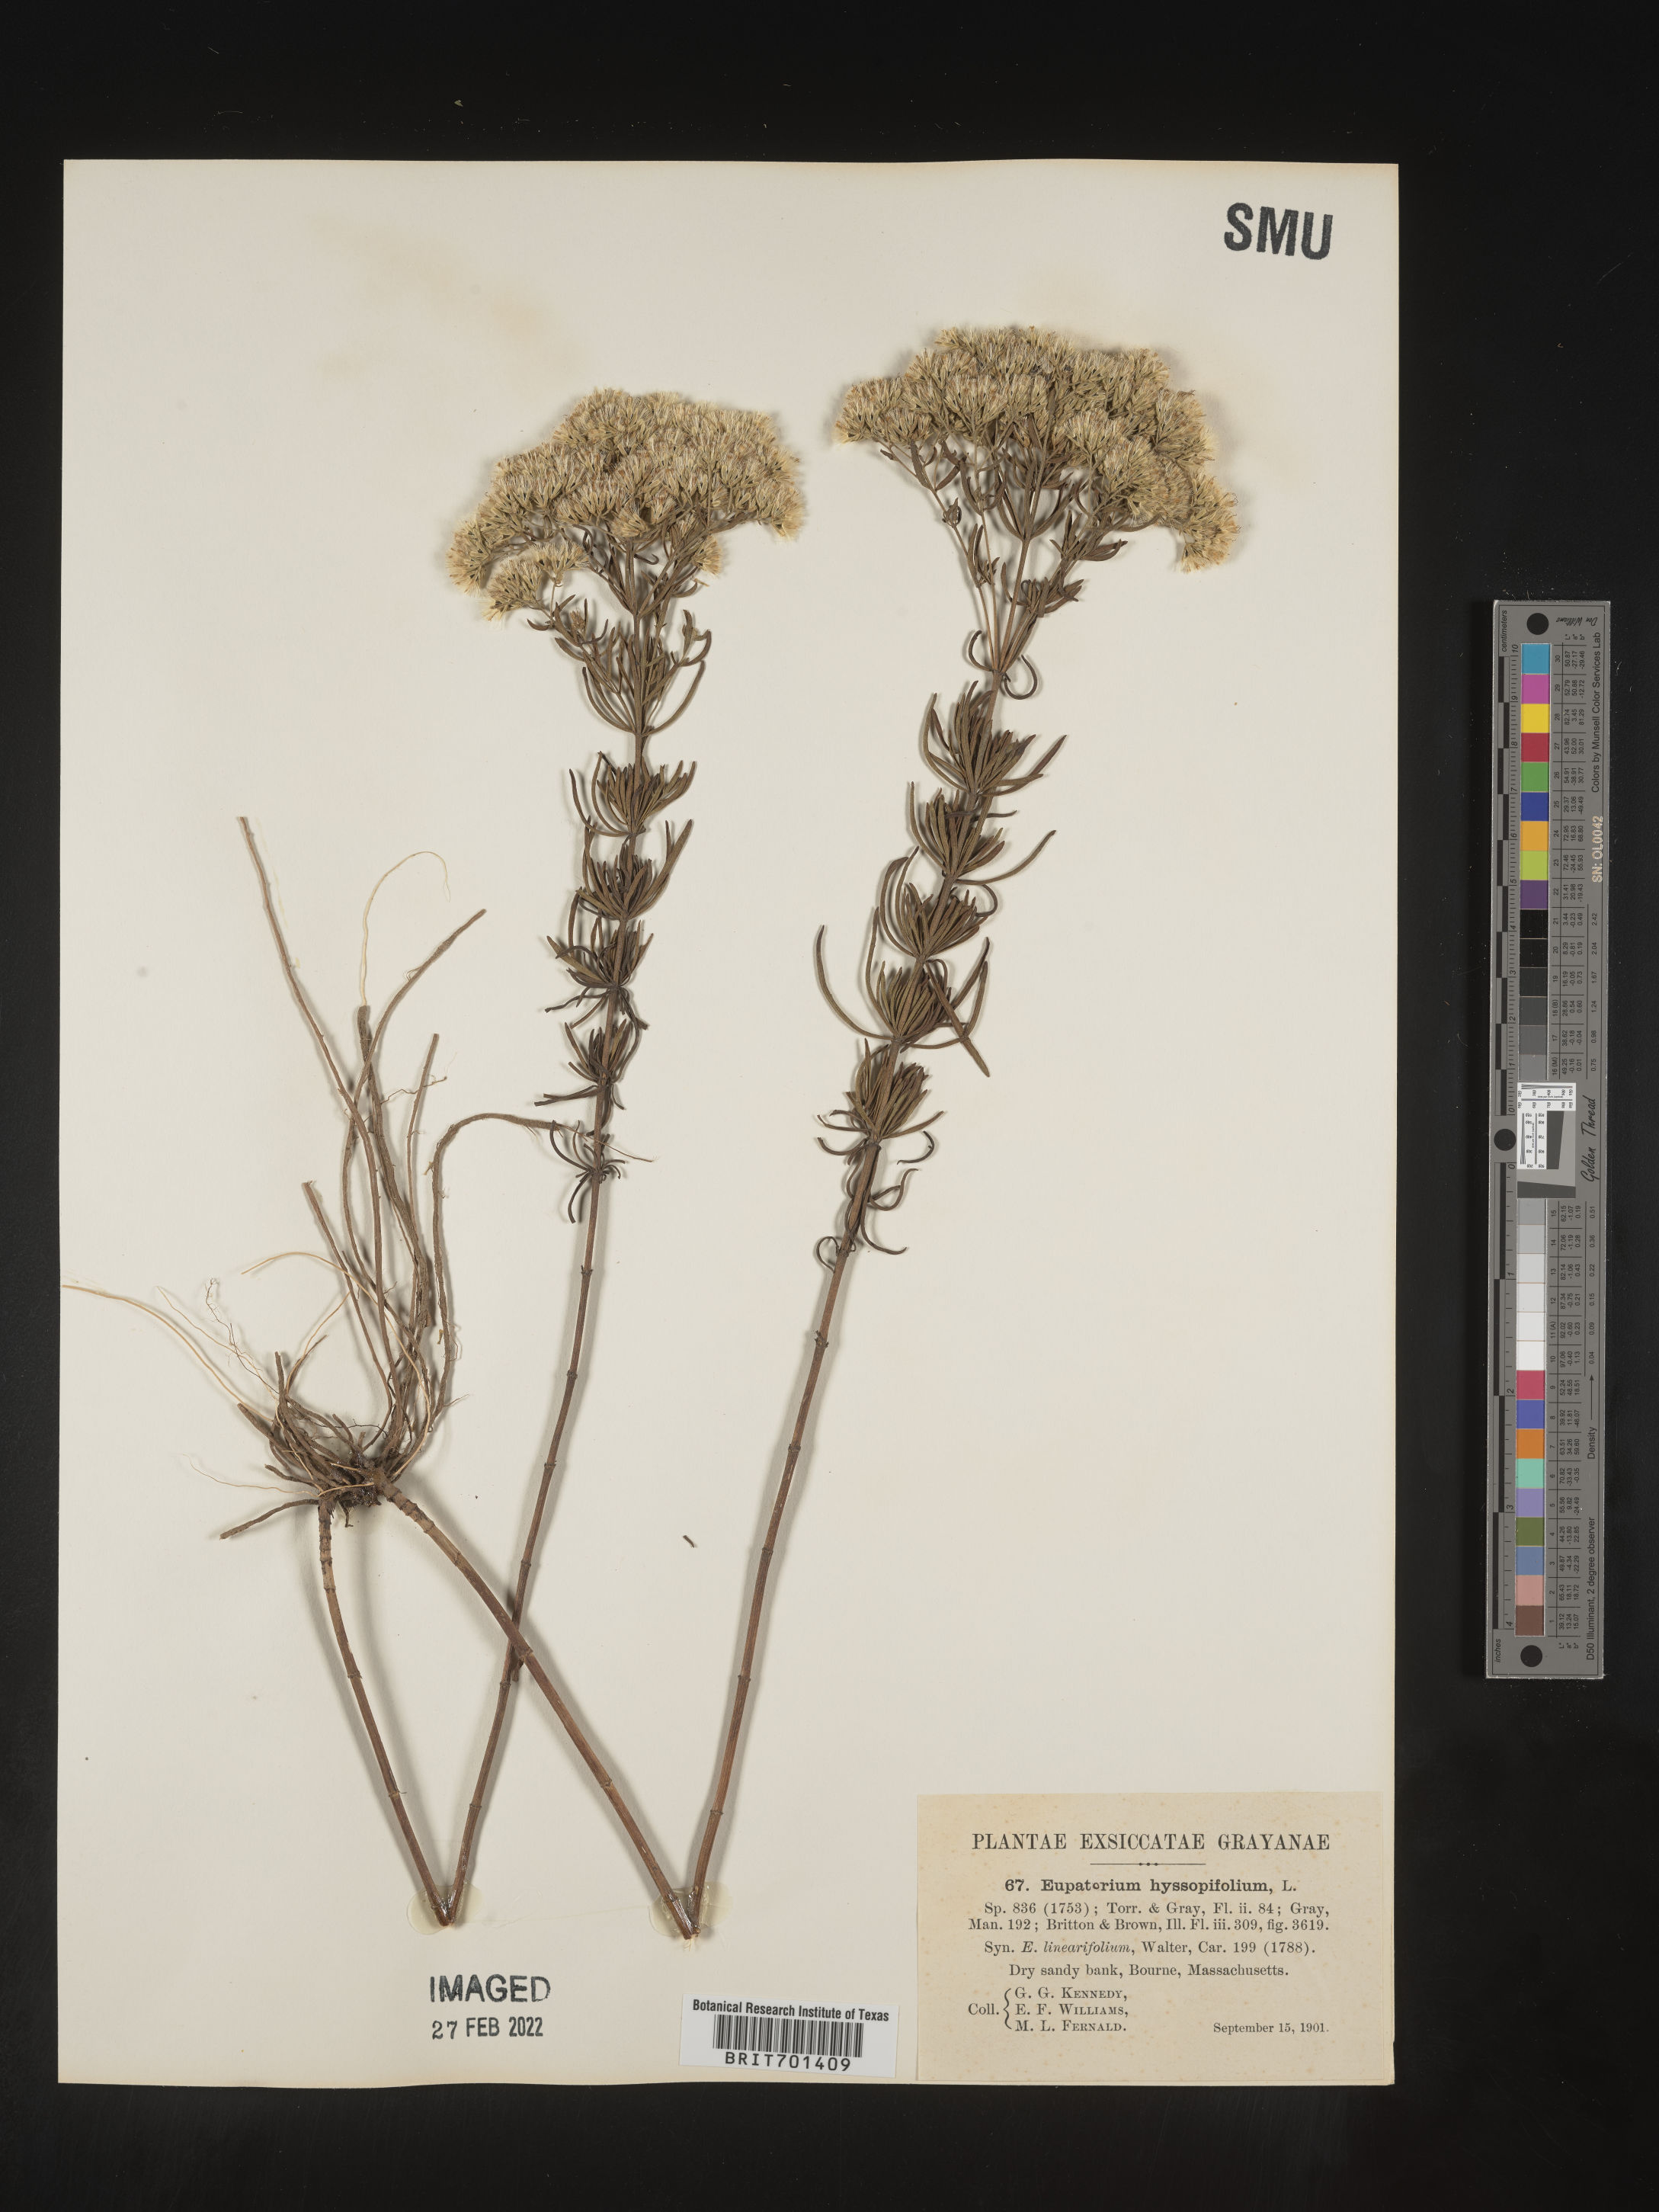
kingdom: Plantae
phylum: Tracheophyta
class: Magnoliopsida
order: Asterales
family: Asteraceae
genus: Eupatorium
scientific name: Eupatorium hyssopifolium
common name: Hyssop-leaf thoroughwort
